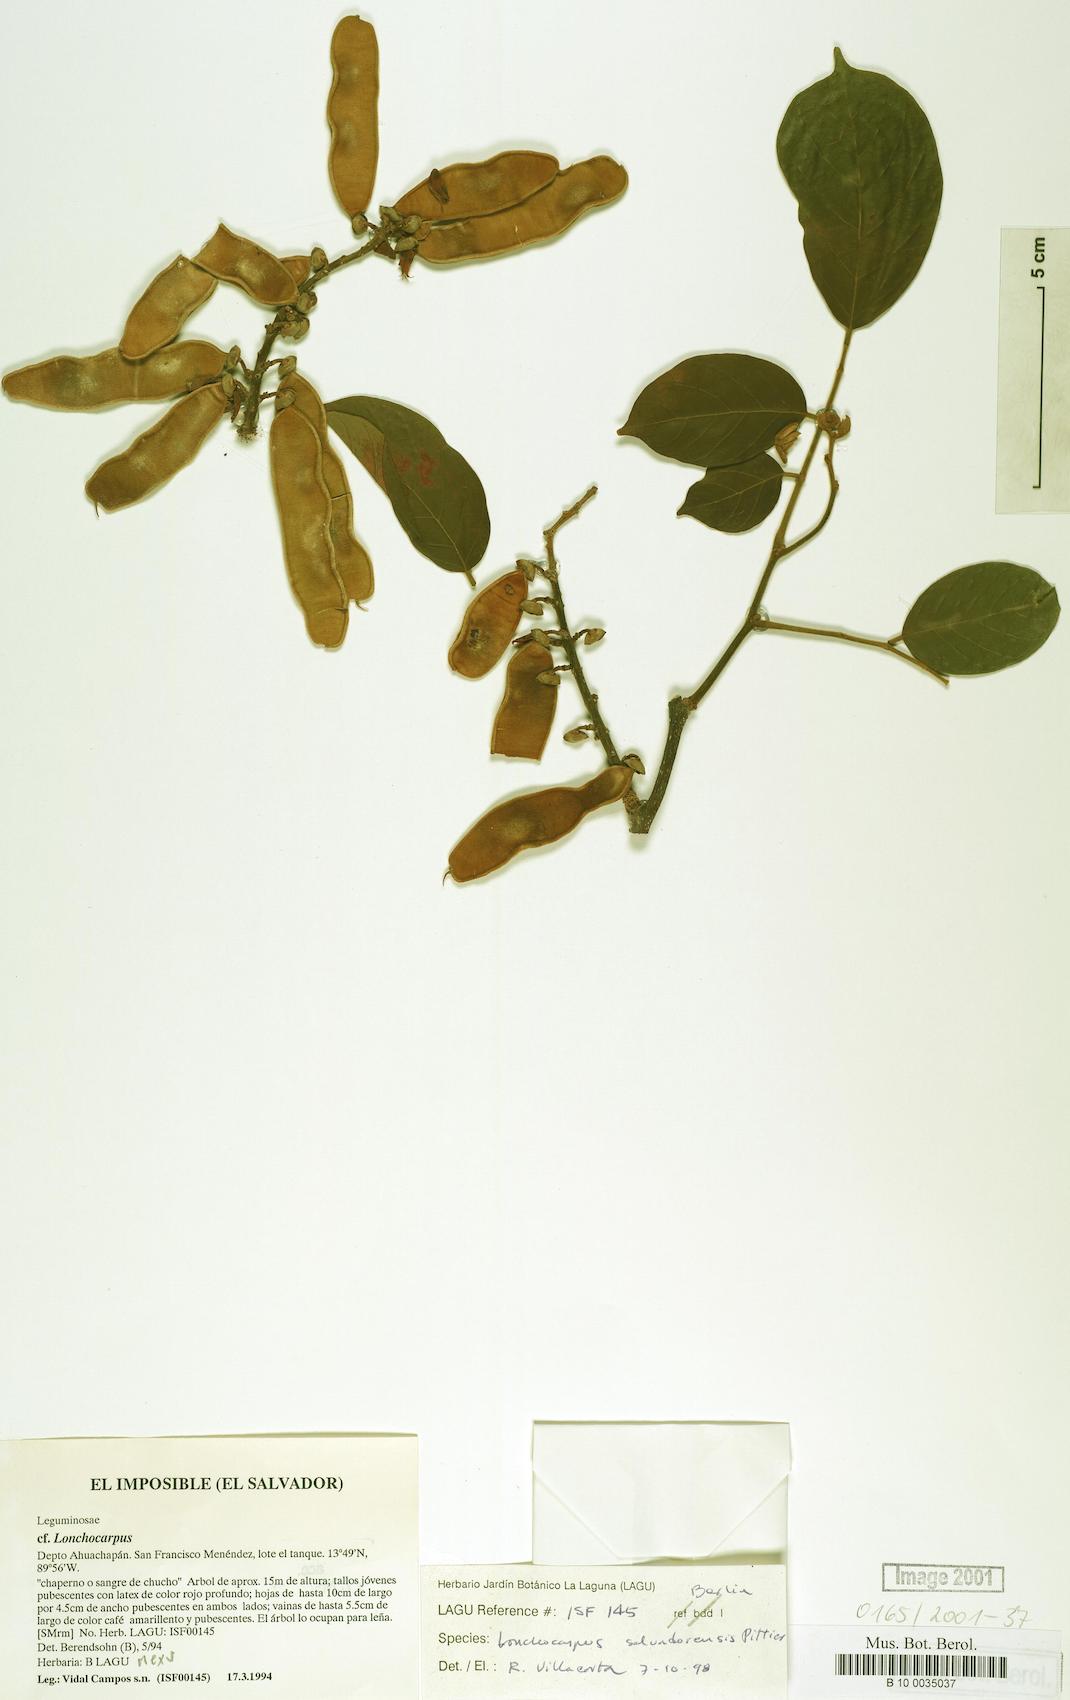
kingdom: Plantae
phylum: Tracheophyta
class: Magnoliopsida
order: Fabales
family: Fabaceae
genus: Lonchocarpus
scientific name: Lonchocarpus salvadorensis
